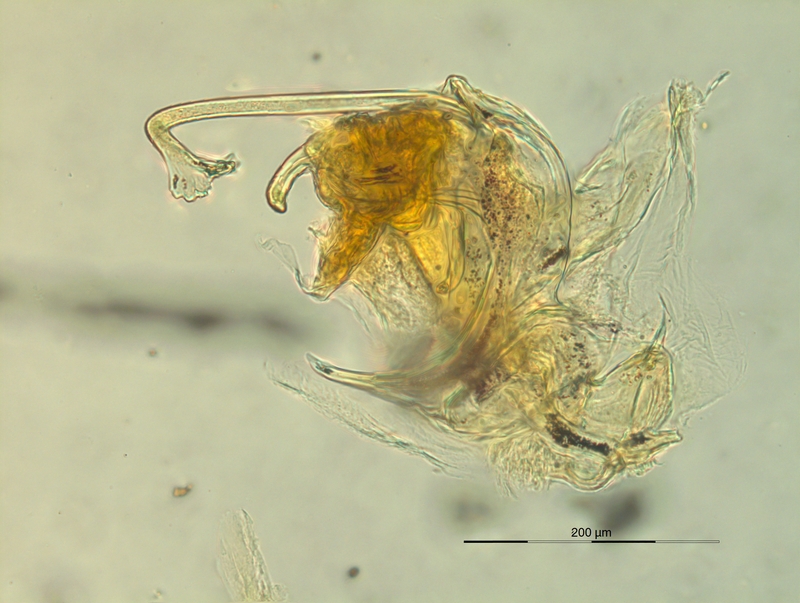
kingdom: Animalia
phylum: Arthropoda
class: Diplopoda
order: Chordeumatida
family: Craspedosomatidae
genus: Dactylophorosoma
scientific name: Dactylophorosoma nivisatelles
